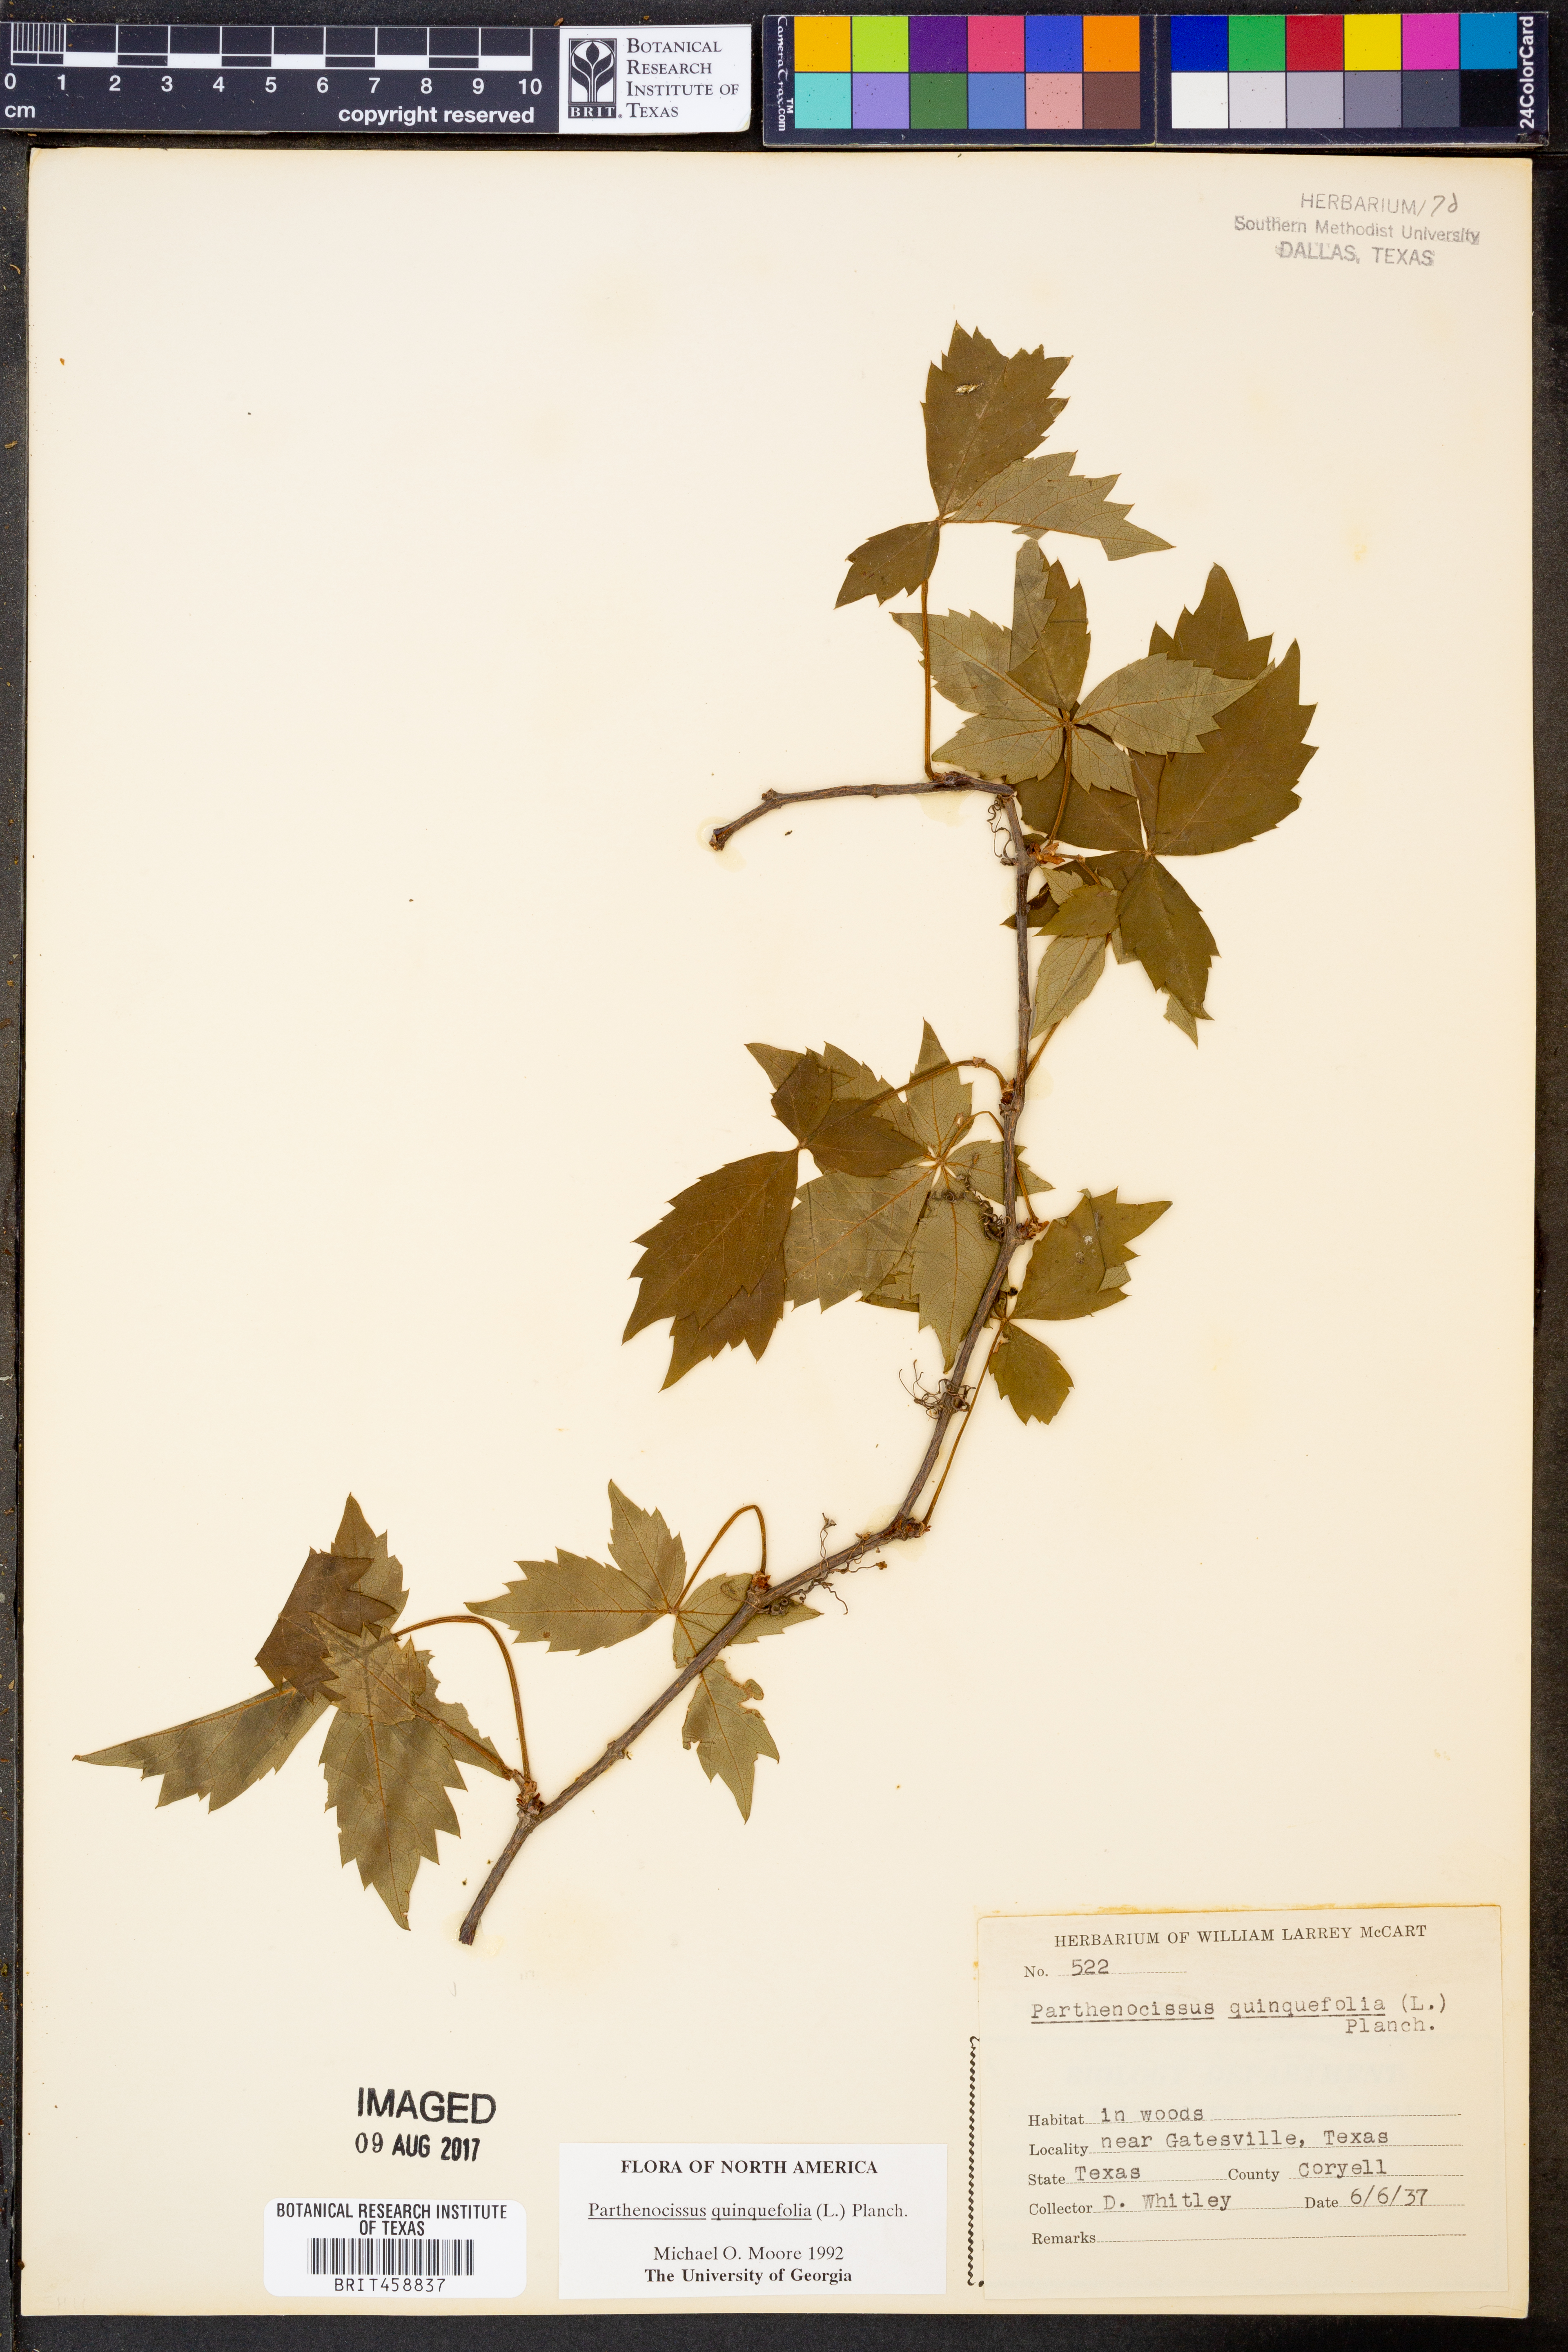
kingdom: Plantae
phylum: Tracheophyta
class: Magnoliopsida
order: Vitales
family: Vitaceae
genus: Parthenocissus
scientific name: Parthenocissus quinquefolia
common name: Virginia-creeper
